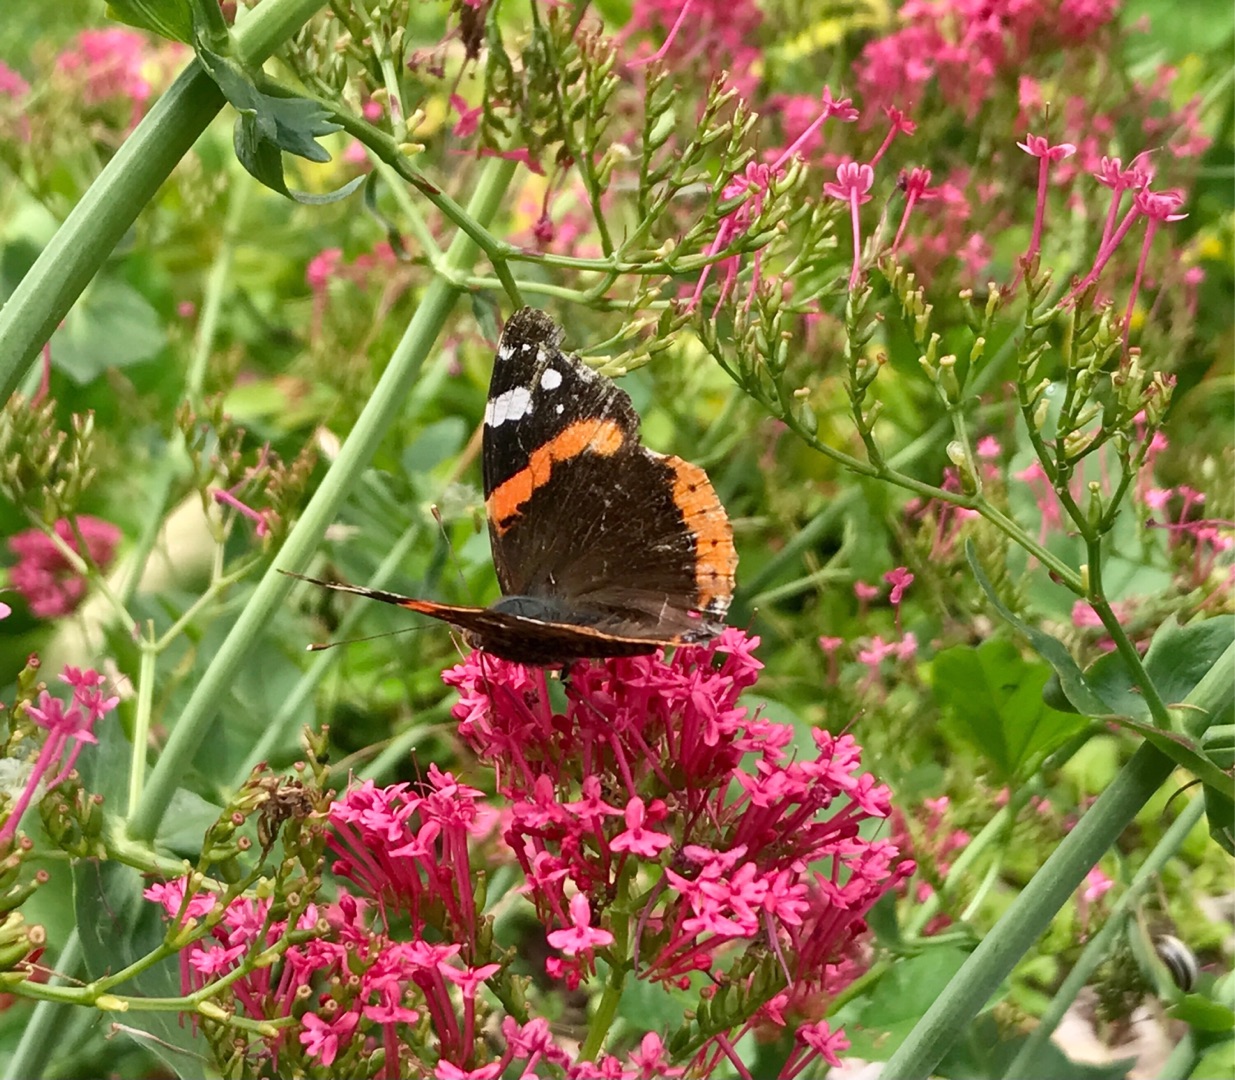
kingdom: Animalia
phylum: Arthropoda
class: Insecta
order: Lepidoptera
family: Nymphalidae
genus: Vanessa
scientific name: Vanessa atalanta
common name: Admiral
